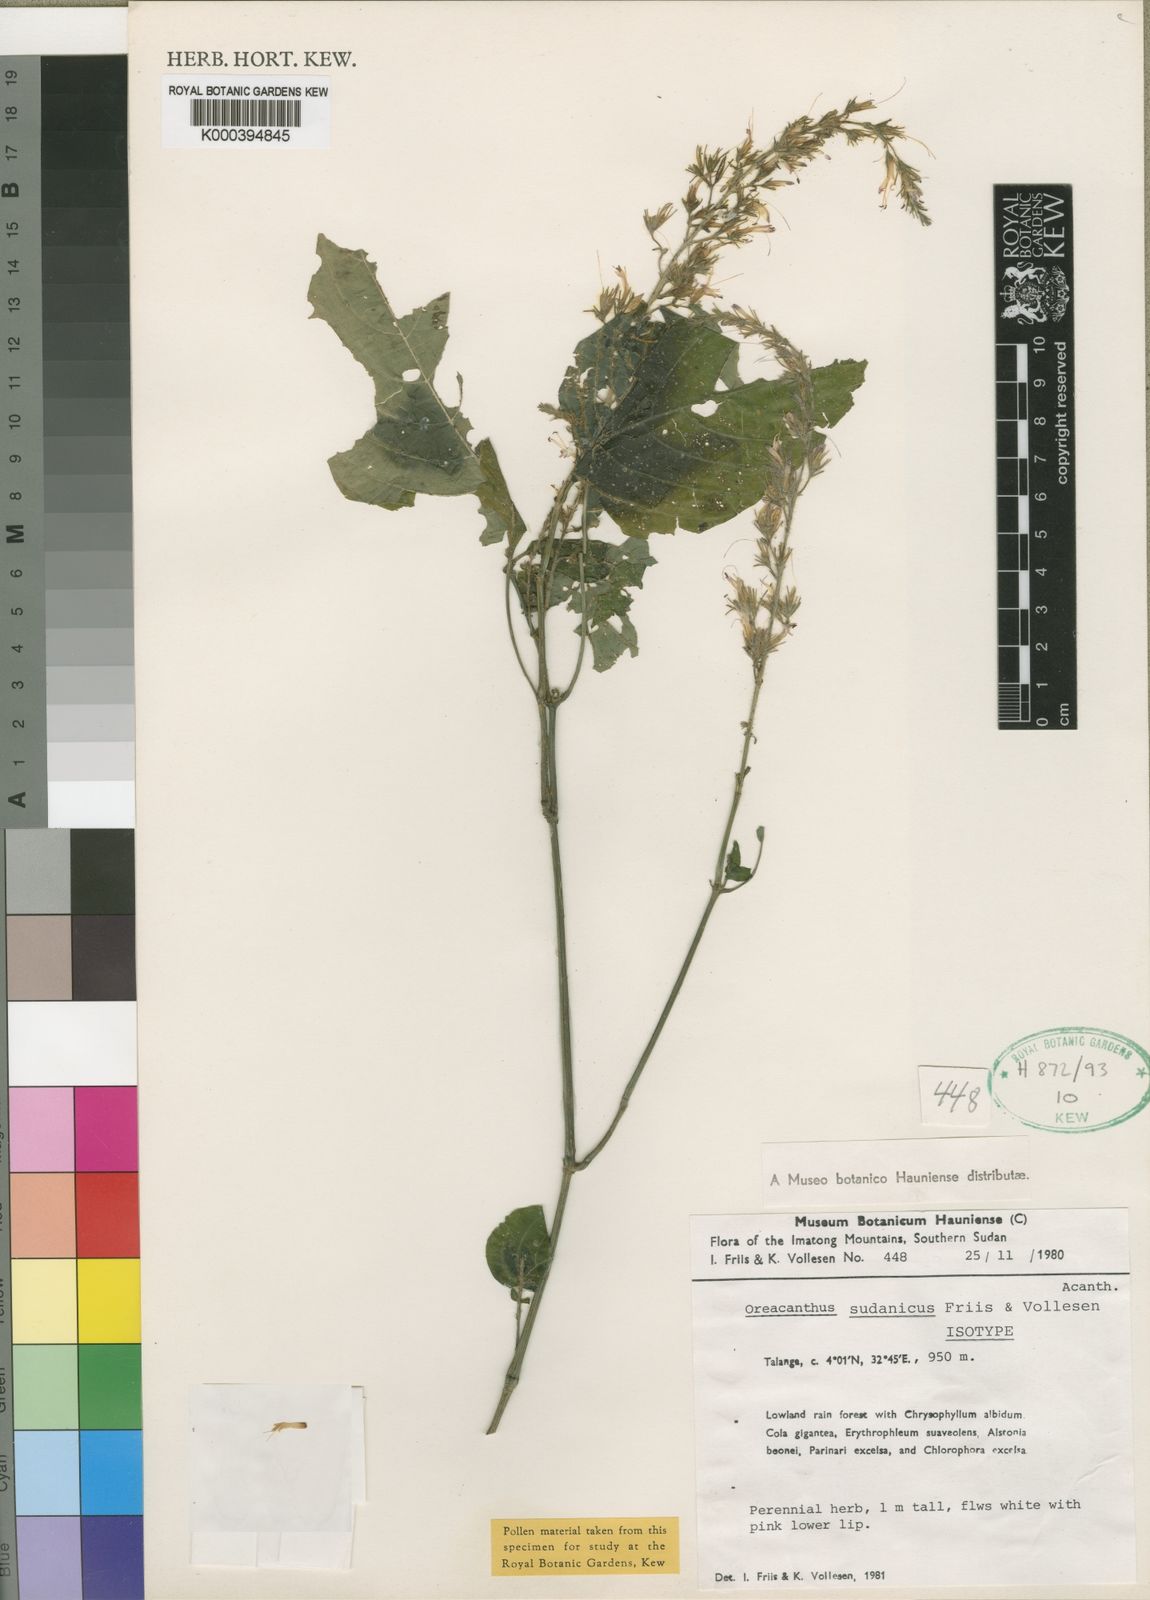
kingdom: Plantae
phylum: Tracheophyta
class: Magnoliopsida
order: Lamiales
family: Acanthaceae
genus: Brachystephanus
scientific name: Brachystephanus sudanicus
